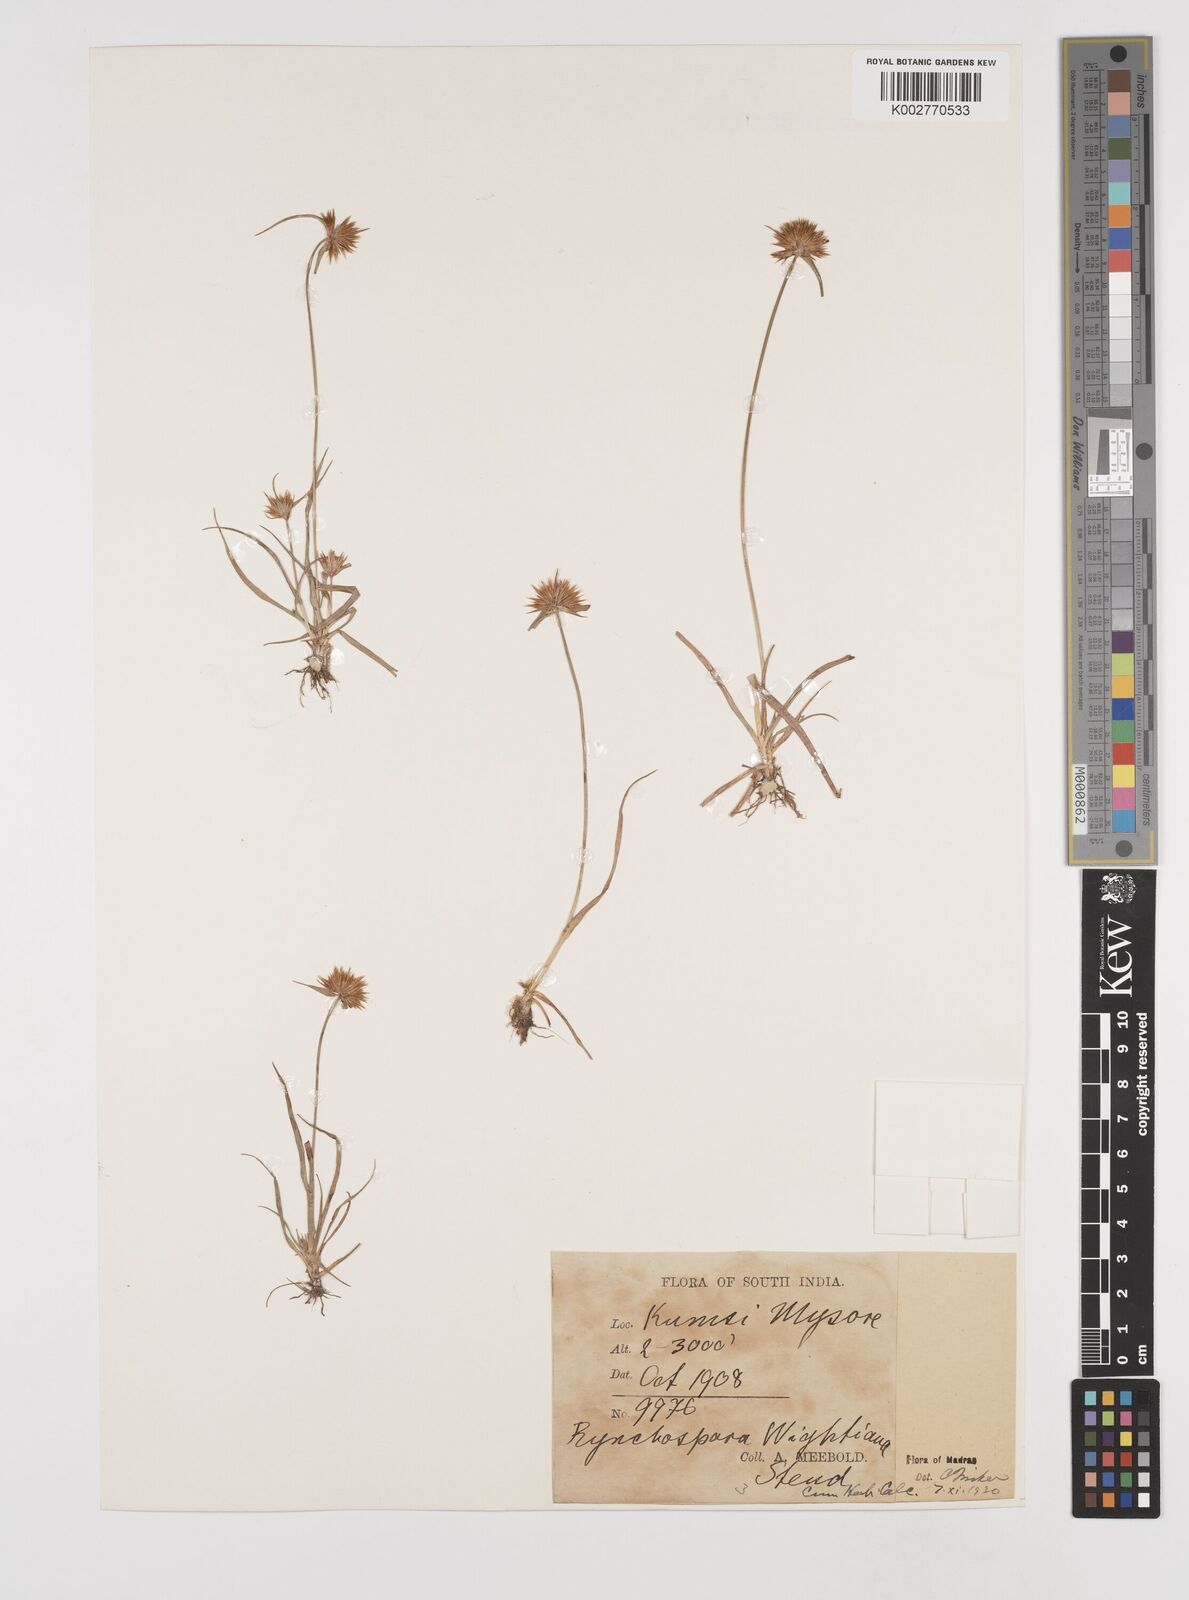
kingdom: Plantae
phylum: Tracheophyta
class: Liliopsida
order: Poales
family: Cyperaceae
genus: Rhynchospora
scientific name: Rhynchospora wightiana
